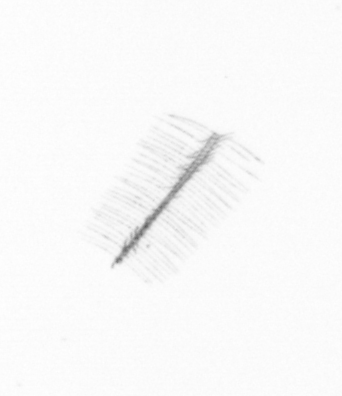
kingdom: Chromista
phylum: Ochrophyta
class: Bacillariophyceae
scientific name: Bacillariophyceae
